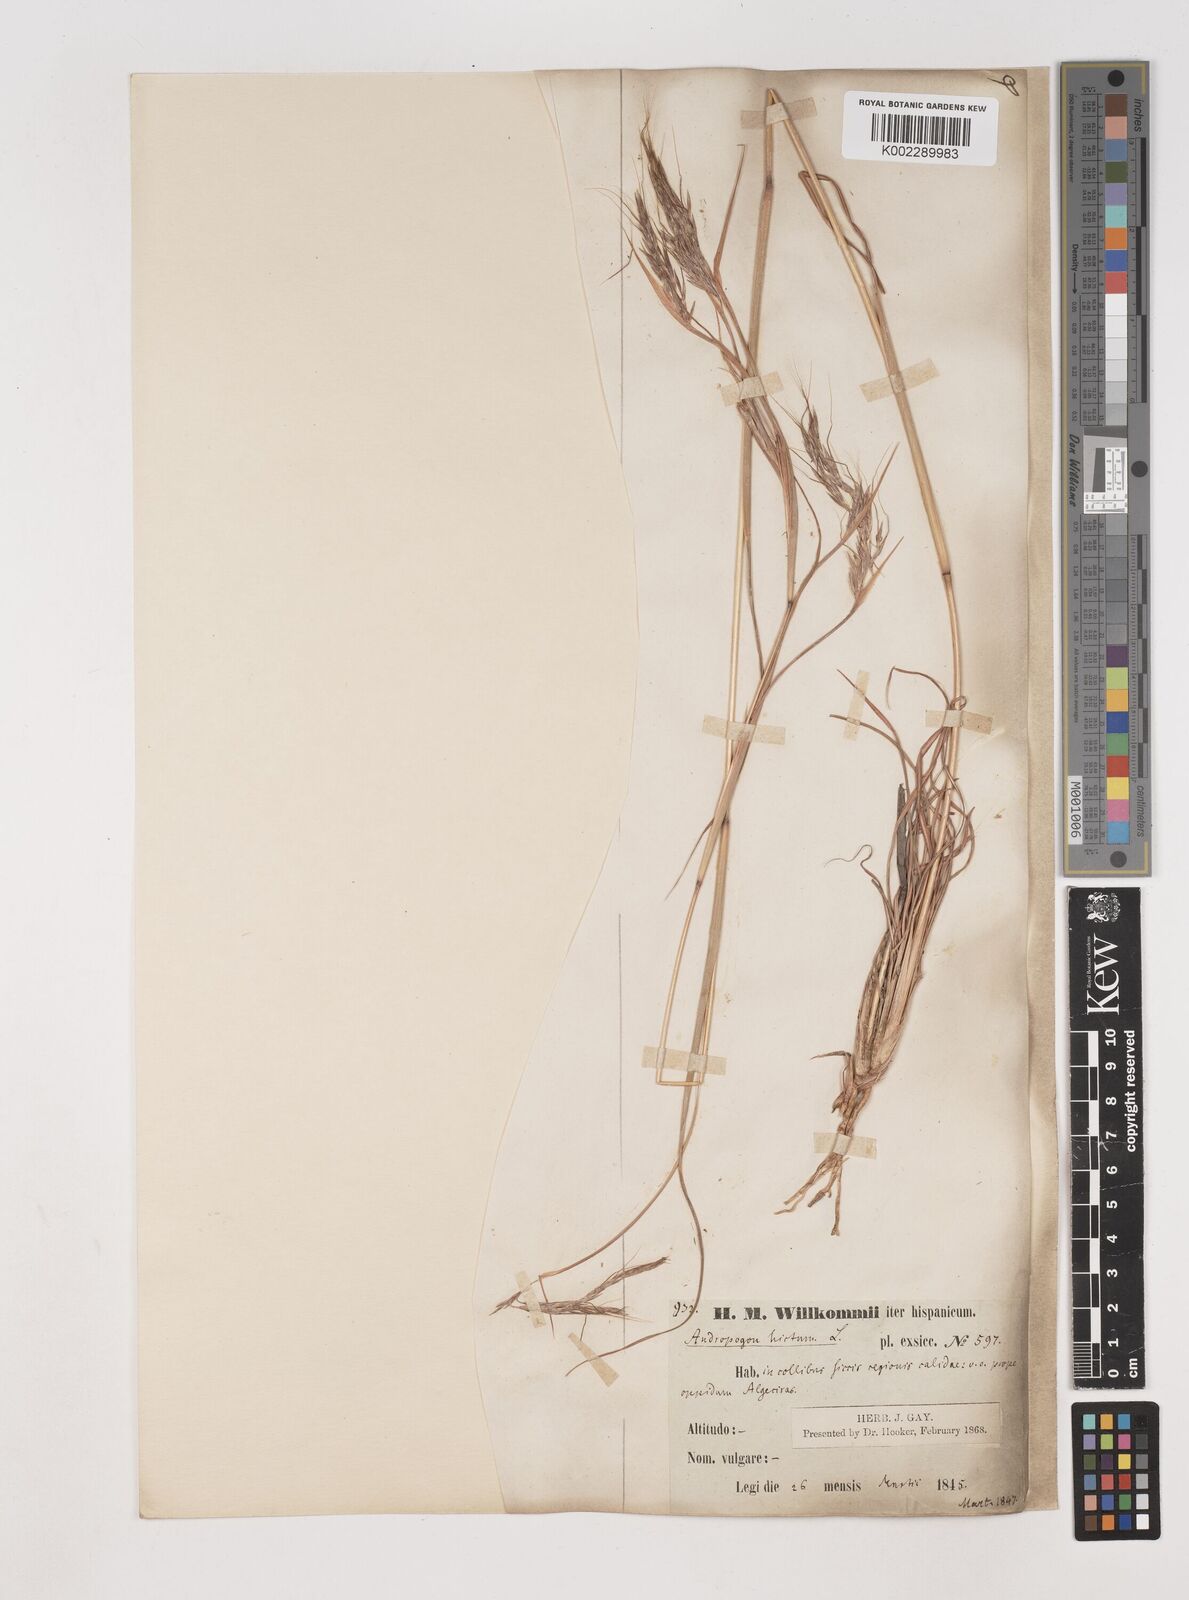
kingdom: Plantae
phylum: Tracheophyta
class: Liliopsida
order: Poales
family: Poaceae
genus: Hyparrhenia
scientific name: Hyparrhenia hirta
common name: Thatching grass
